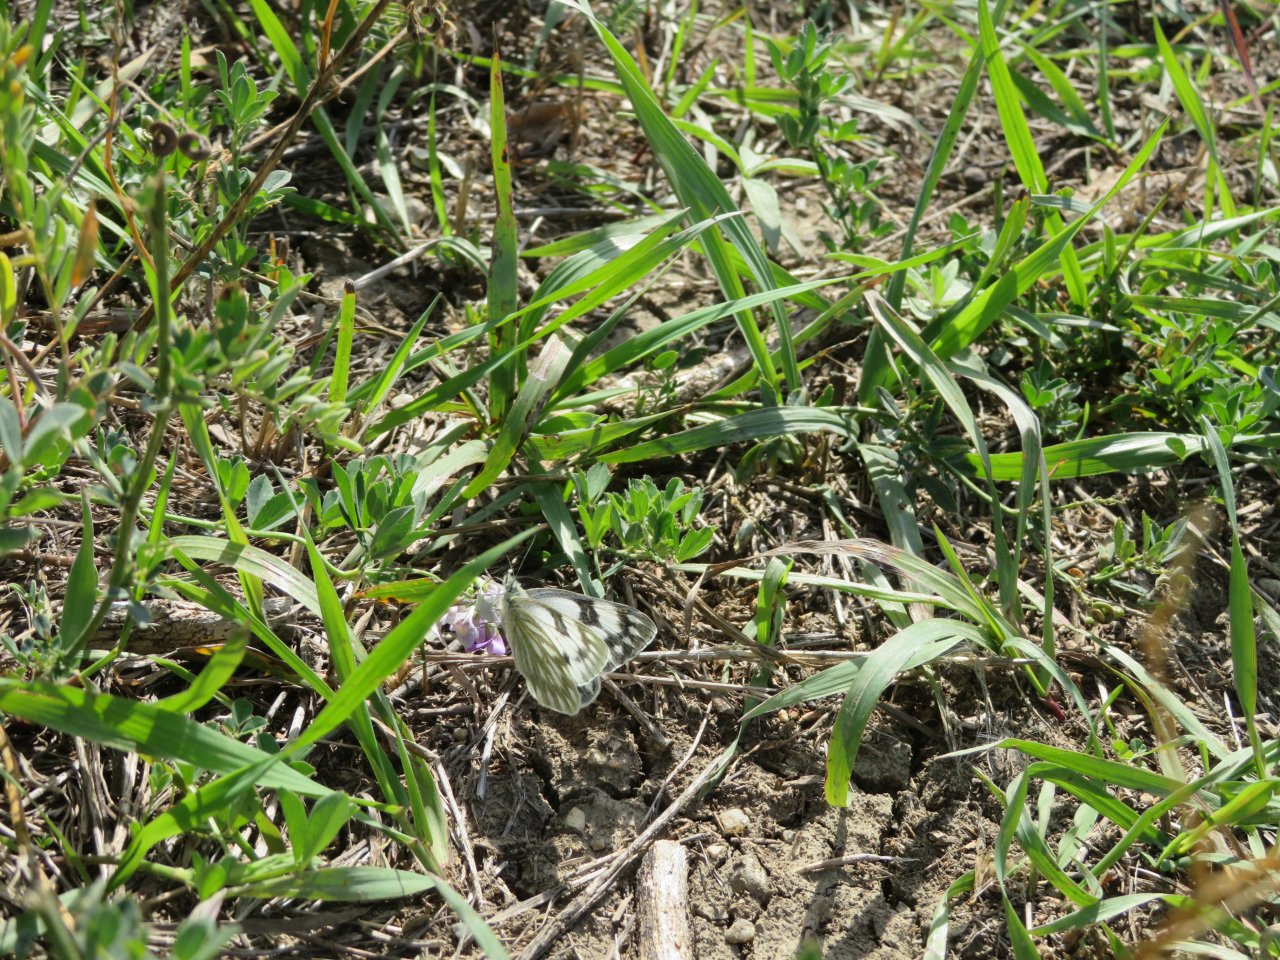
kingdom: Animalia
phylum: Arthropoda
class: Insecta
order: Lepidoptera
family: Pieridae
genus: Pontia
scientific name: Pontia occidentalis
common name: Western White
